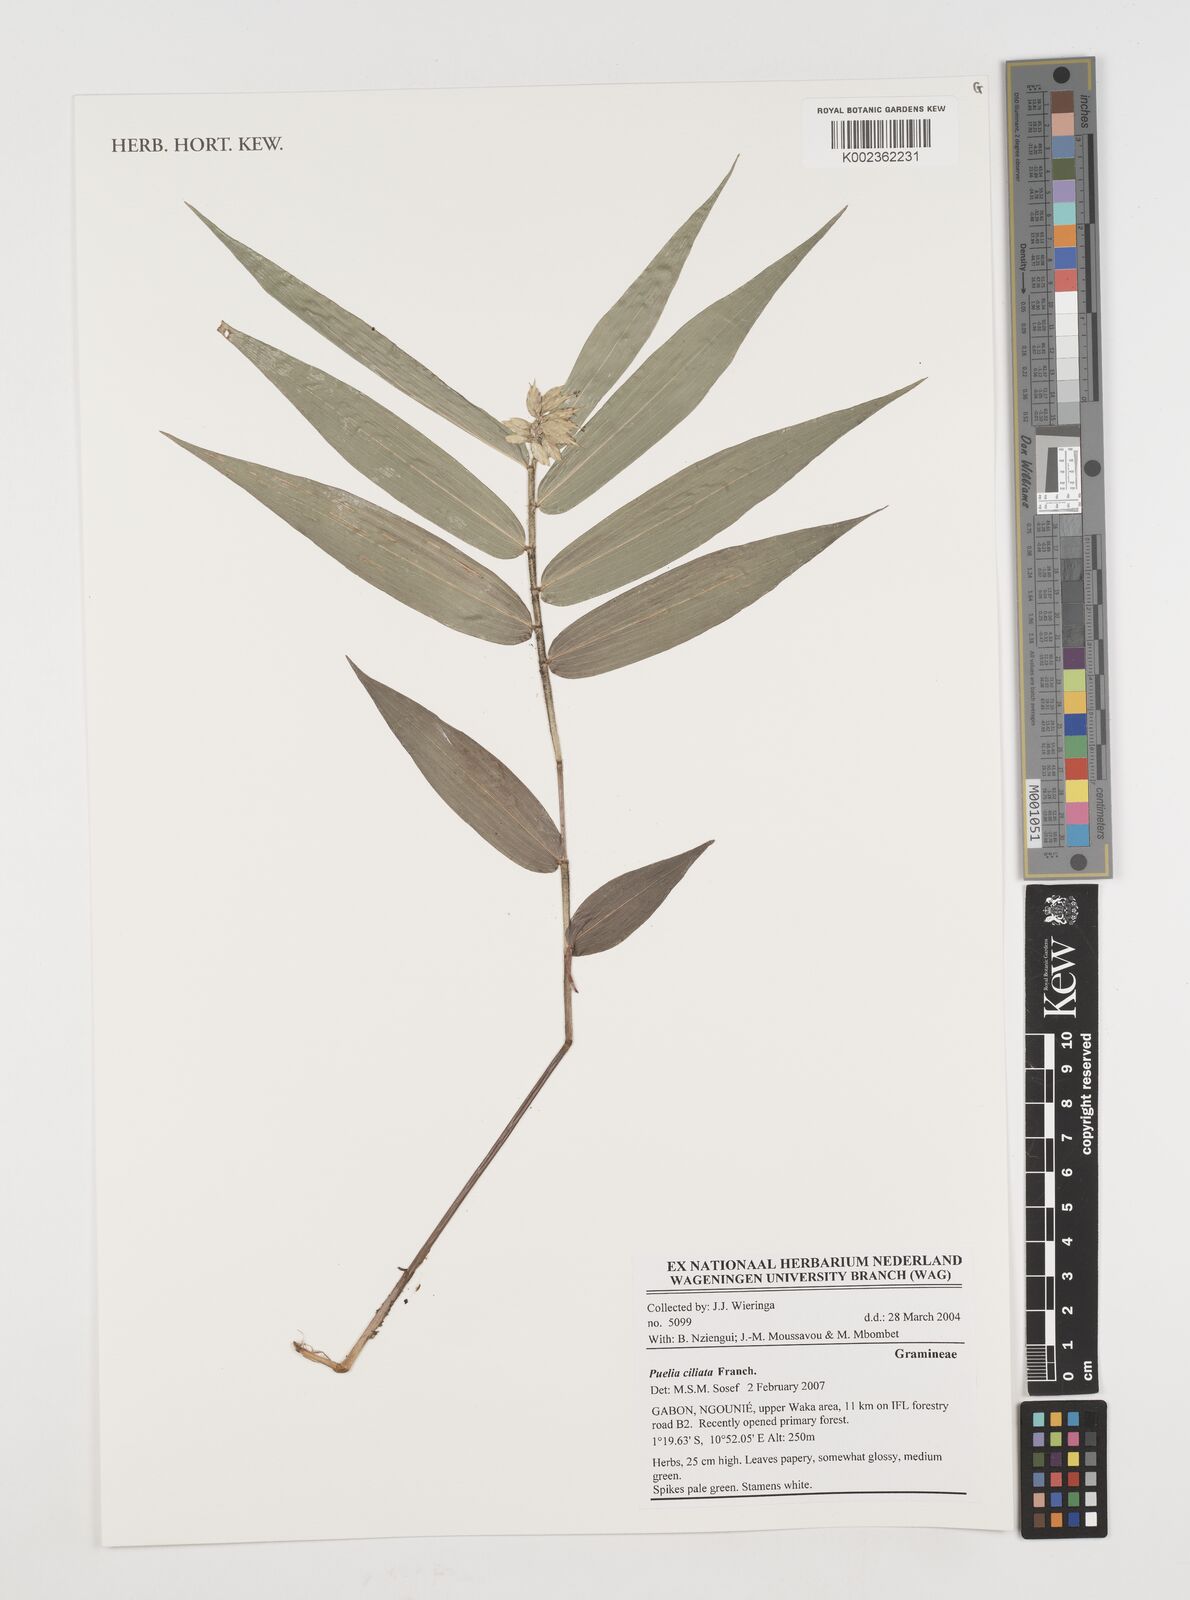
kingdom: Plantae
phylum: Tracheophyta
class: Liliopsida
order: Poales
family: Poaceae
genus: Puelia
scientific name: Puelia ciliata
